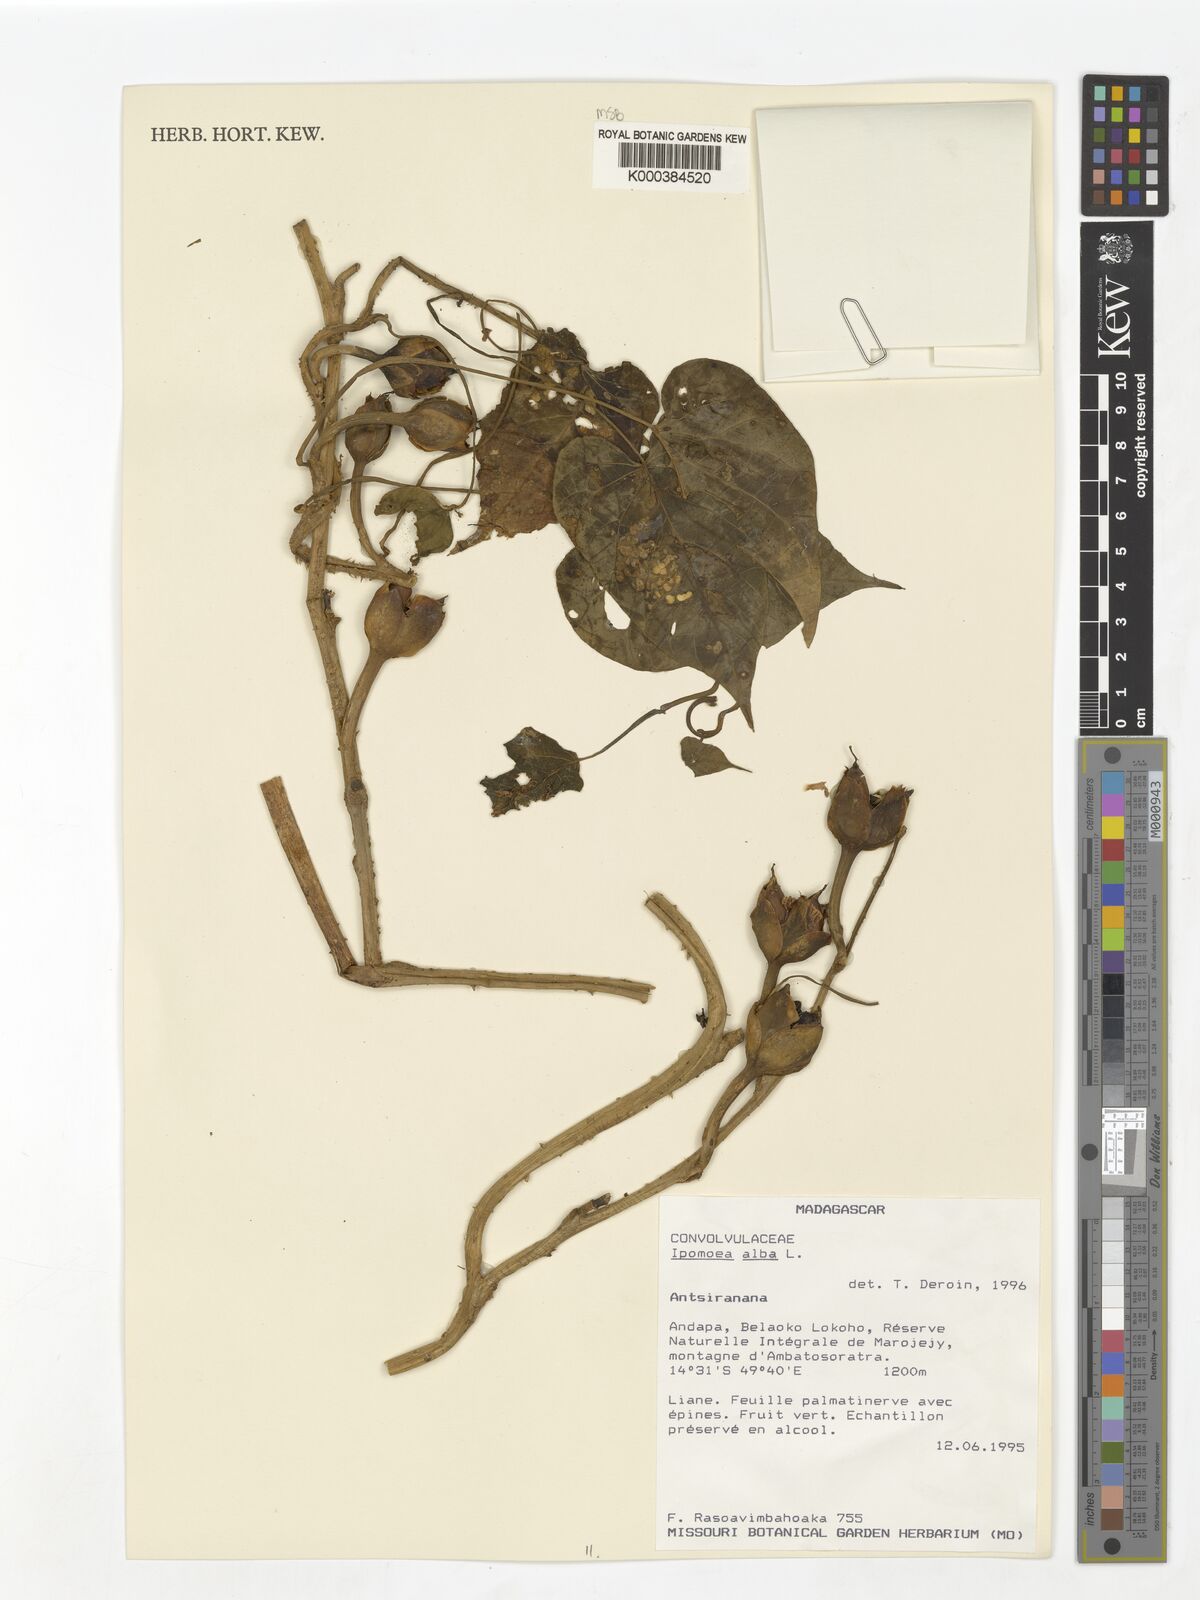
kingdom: Plantae
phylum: Tracheophyta
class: Magnoliopsida
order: Solanales
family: Convolvulaceae
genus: Ipomoea
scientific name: Ipomoea alba
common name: Moonflower
